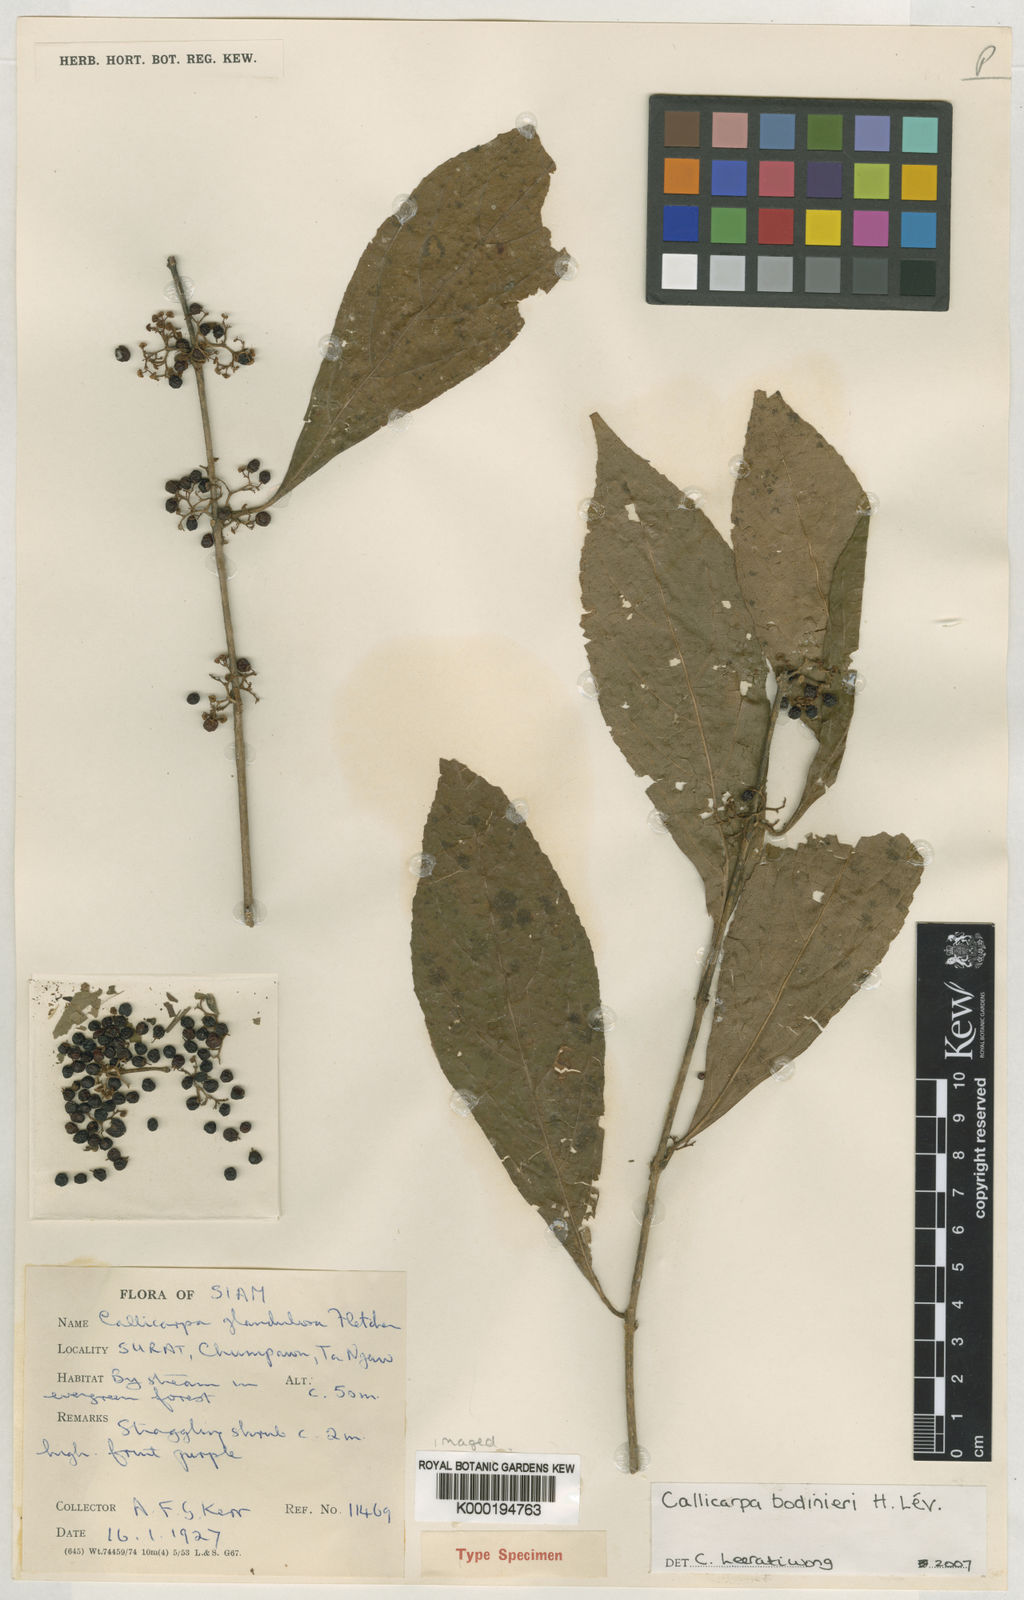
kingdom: Plantae
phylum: Tracheophyta
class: Magnoliopsida
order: Lamiales
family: Lamiaceae
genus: Callicarpa
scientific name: Callicarpa
